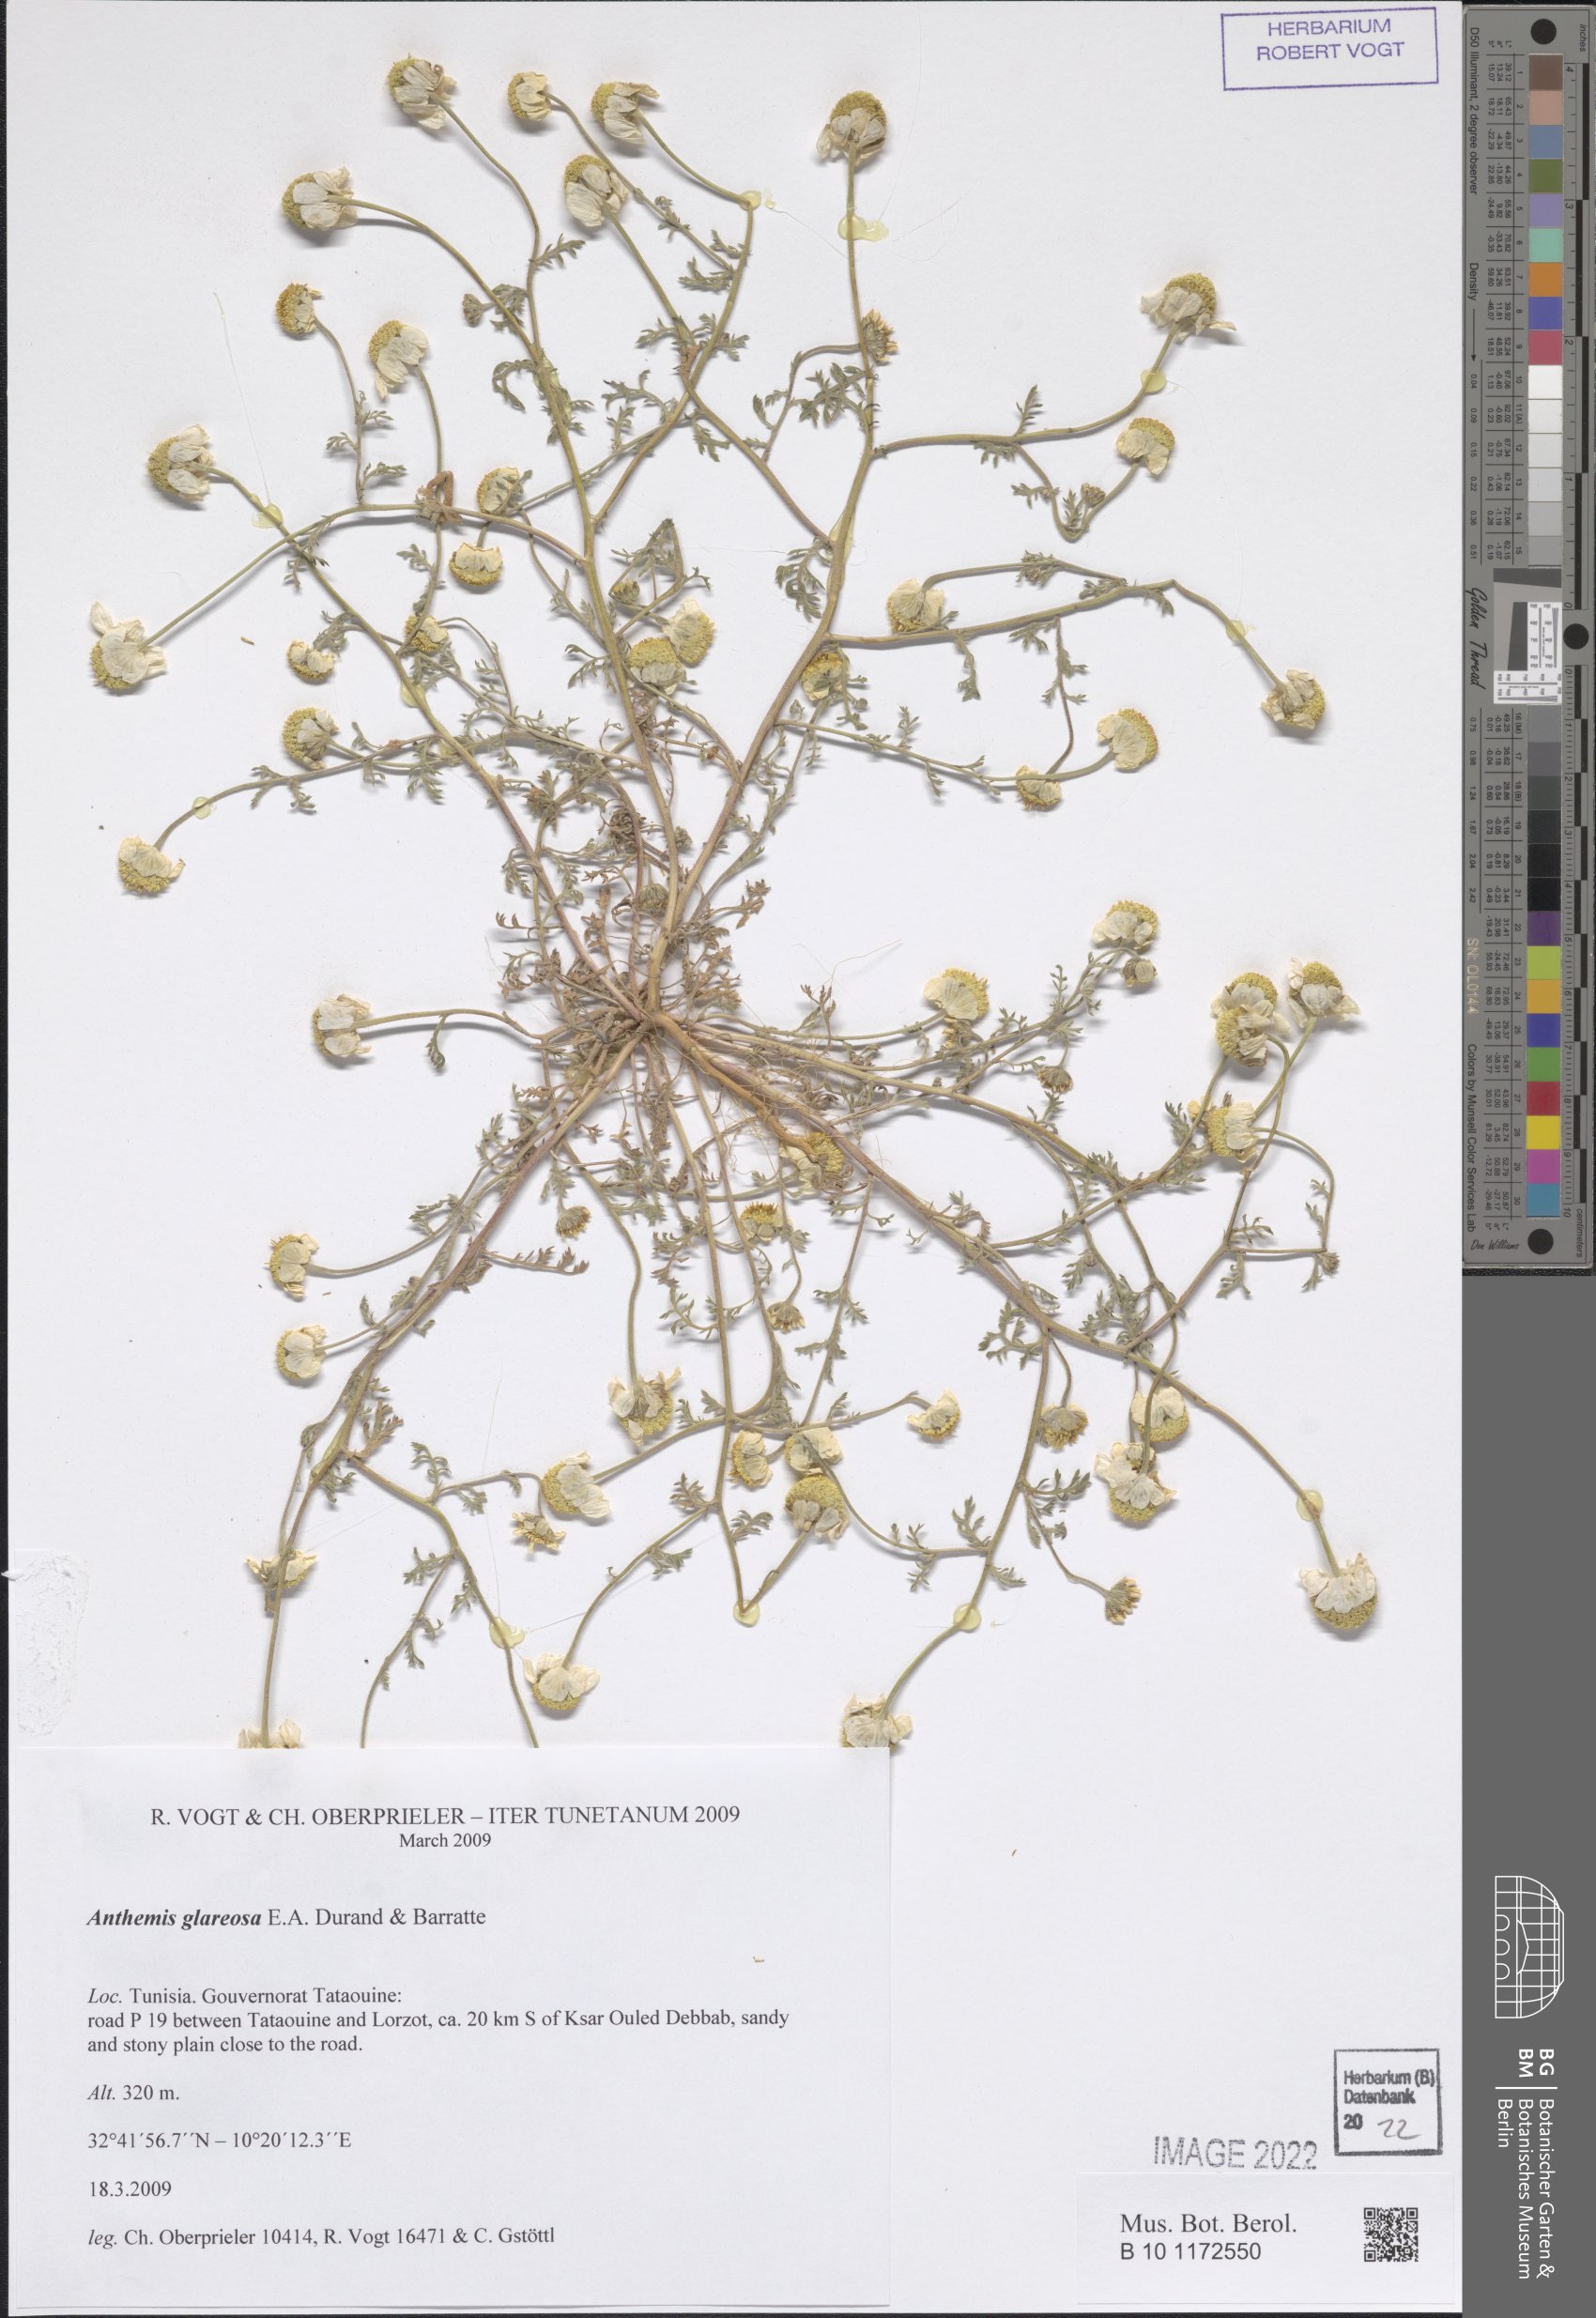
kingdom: Plantae
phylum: Tracheophyta
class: Magnoliopsida
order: Asterales
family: Asteraceae
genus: Anthemis
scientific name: Anthemis glareosa
